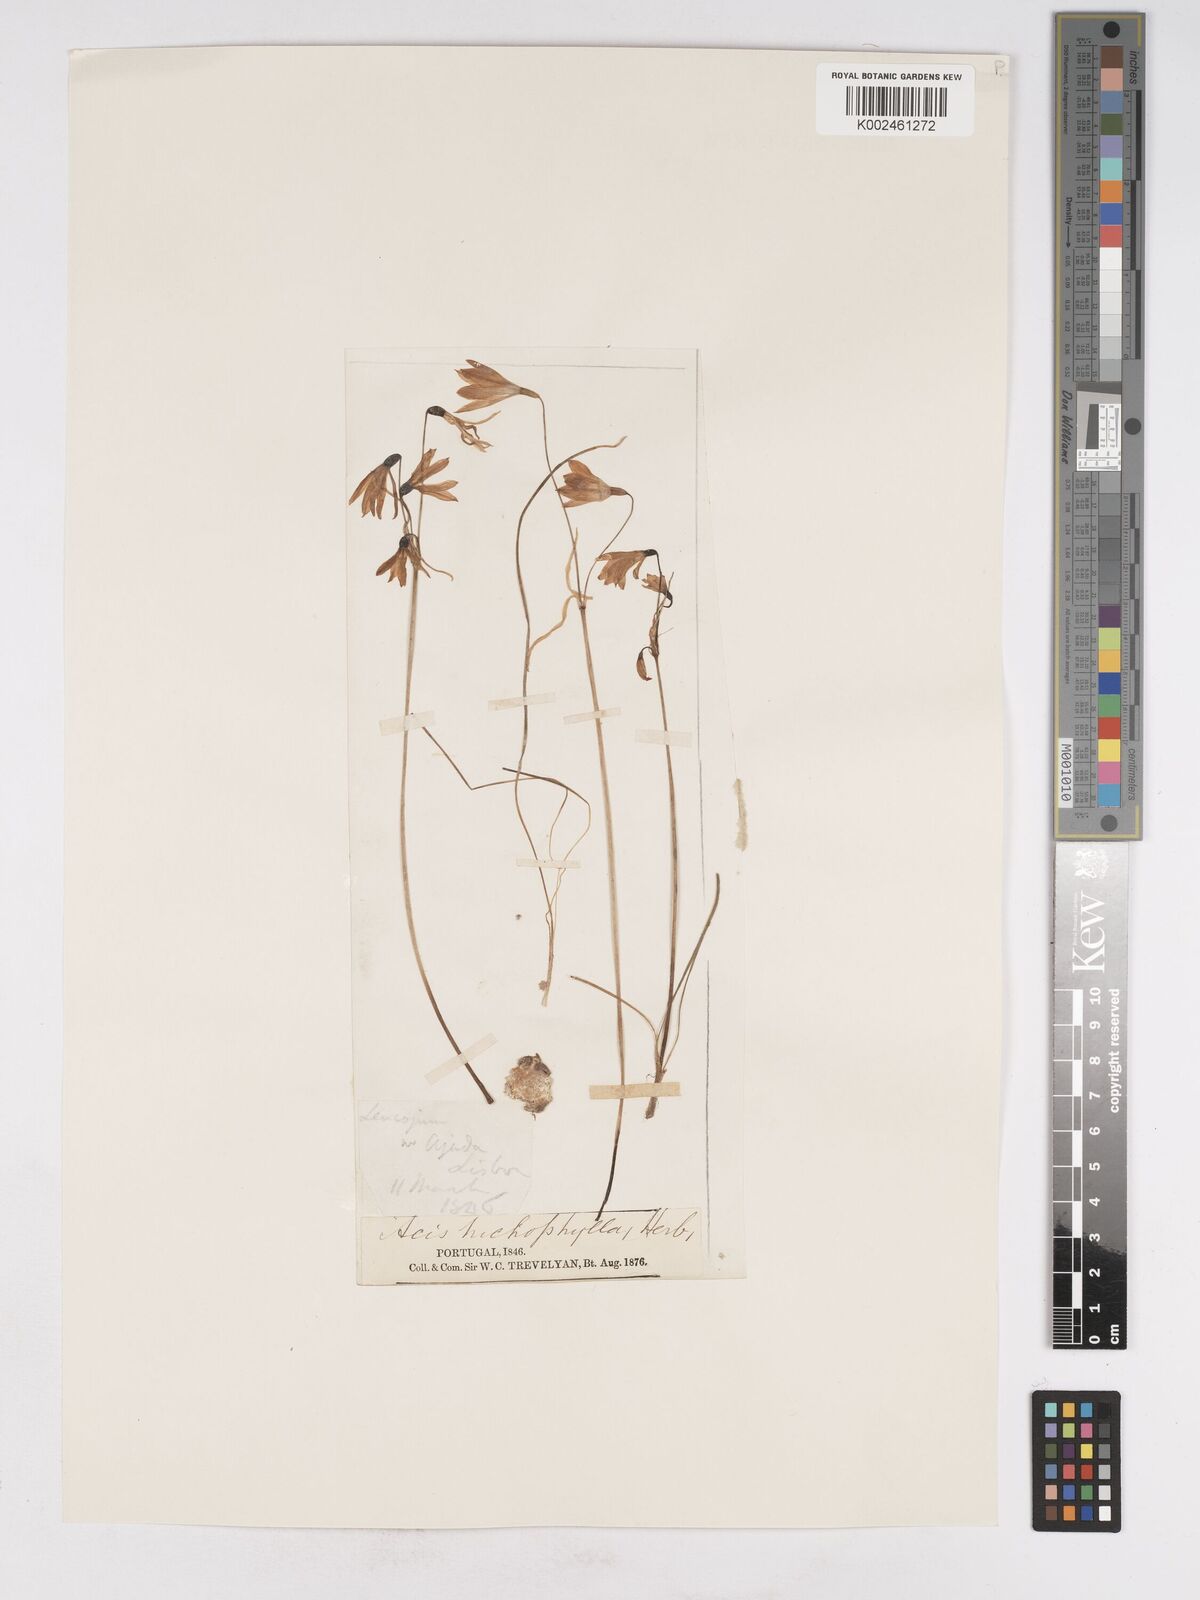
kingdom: Plantae
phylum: Tracheophyta
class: Liliopsida
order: Asparagales
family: Amaryllidaceae
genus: Acis
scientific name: Acis trichophylla
